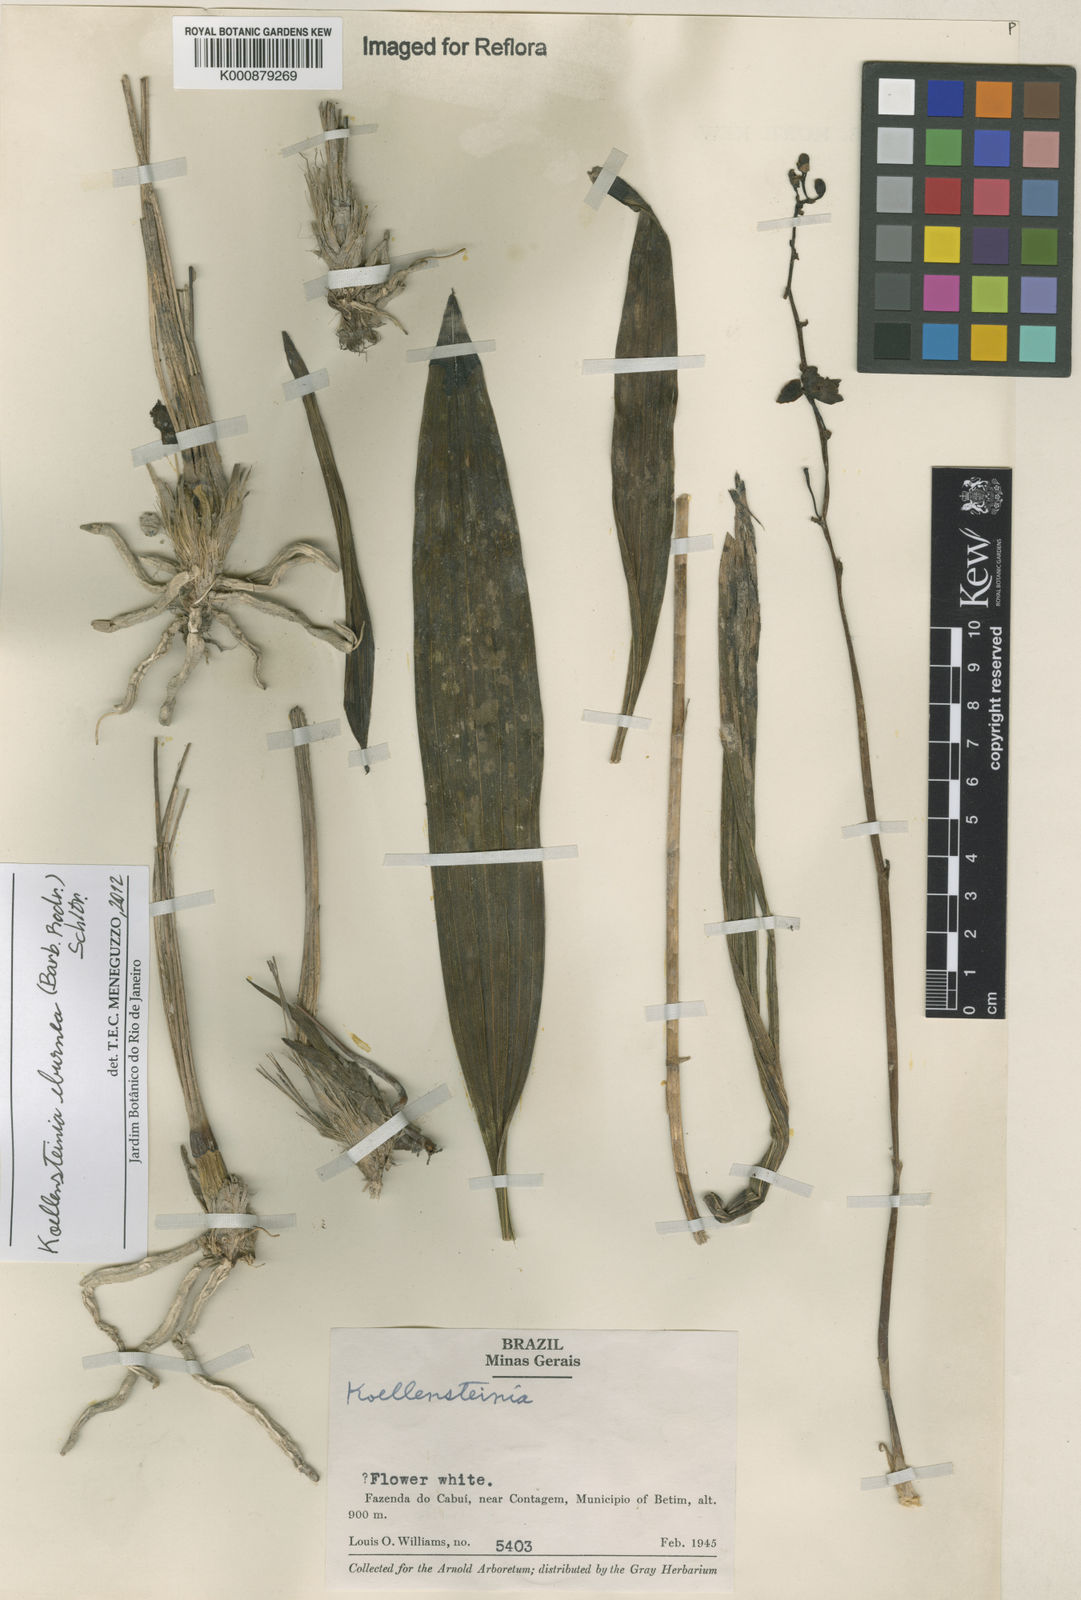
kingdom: Plantae
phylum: Tracheophyta
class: Liliopsida
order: Asparagales
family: Orchidaceae
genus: Koellensteinia
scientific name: Koellensteinia eburnea
